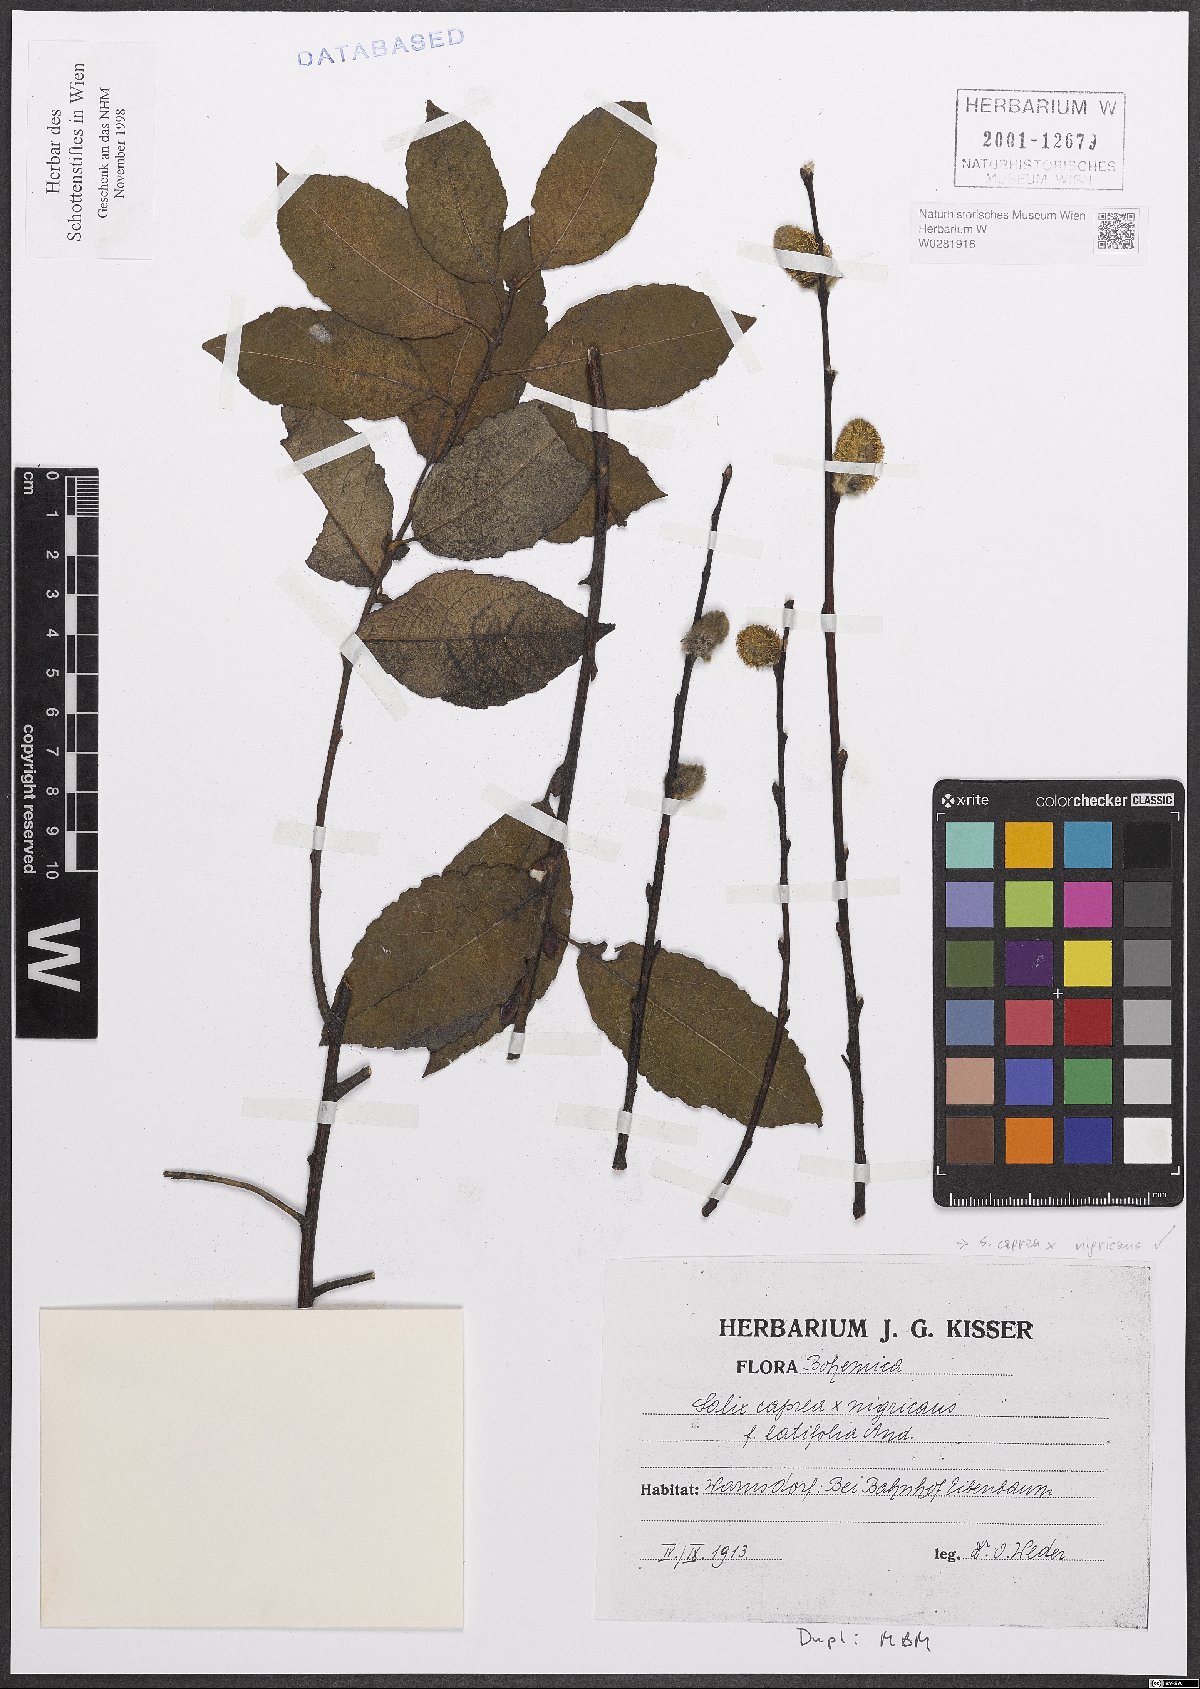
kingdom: Plantae
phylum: Tracheophyta
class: Magnoliopsida
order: Malpighiales
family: Salicaceae
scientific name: Salicaceae
